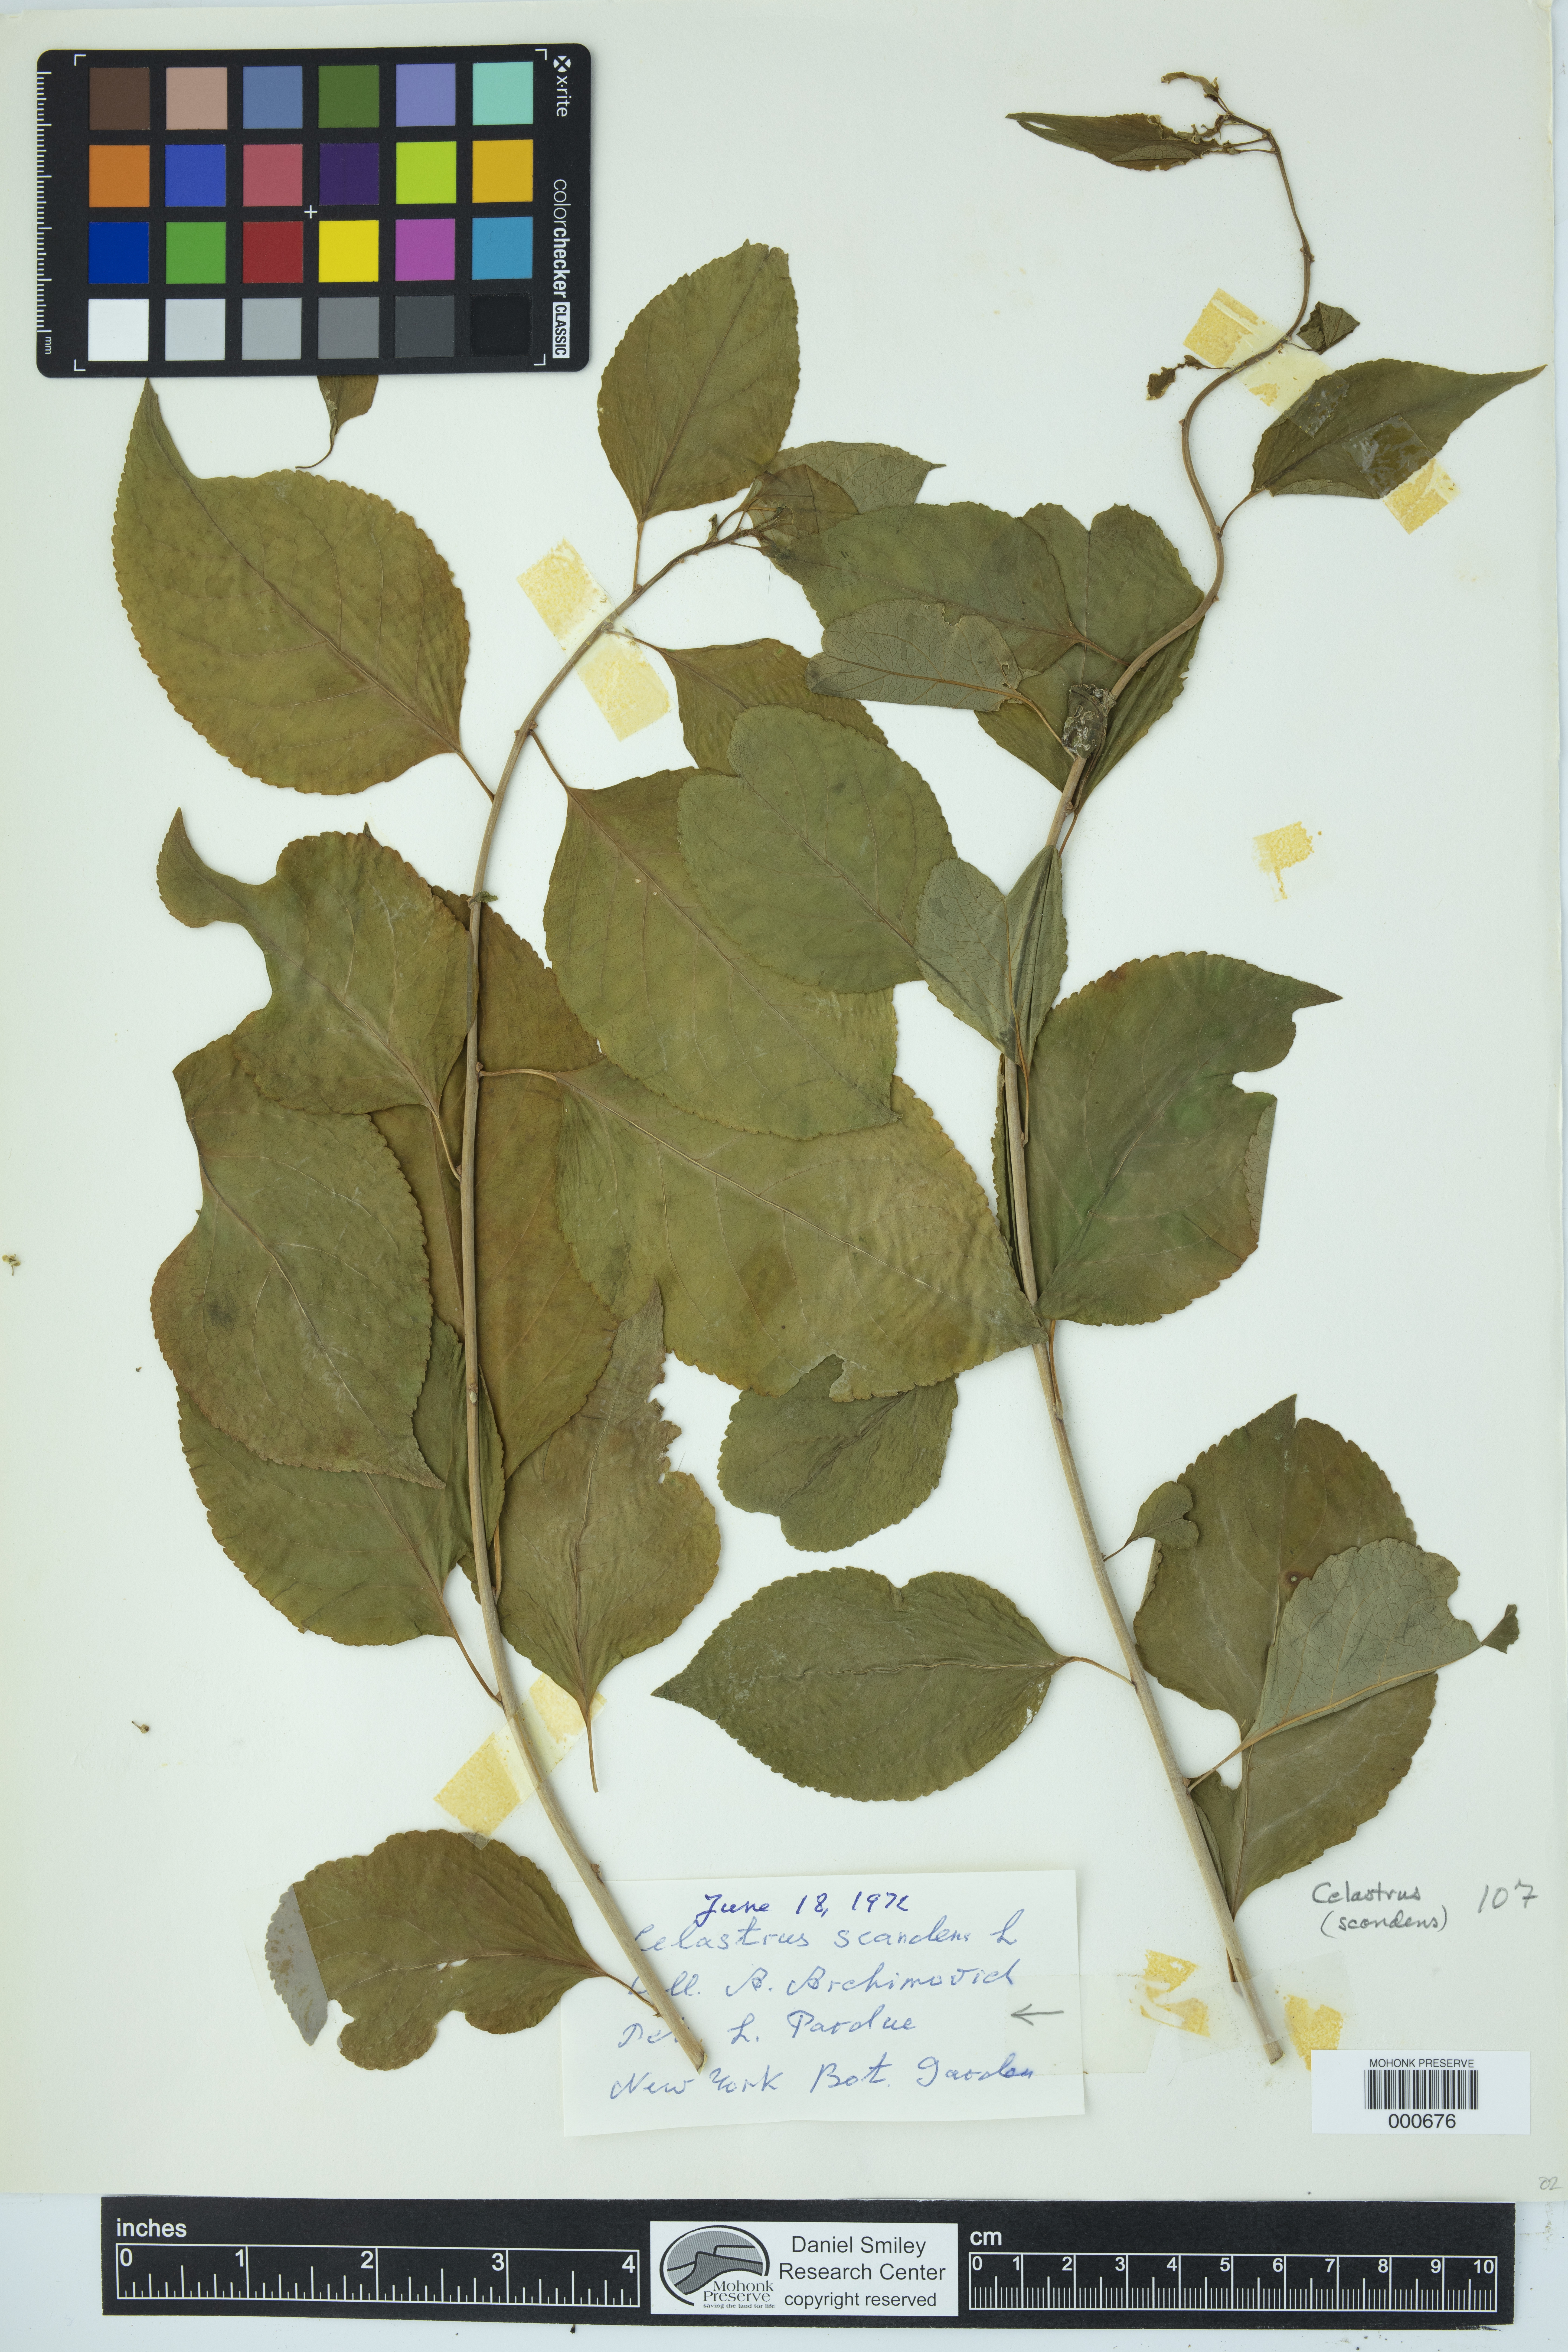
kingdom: Plantae
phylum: Tracheophyta
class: Magnoliopsida
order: Celastrales
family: Celastraceae
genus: Celastrus
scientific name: Celastrus scandens
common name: American bittersweet
